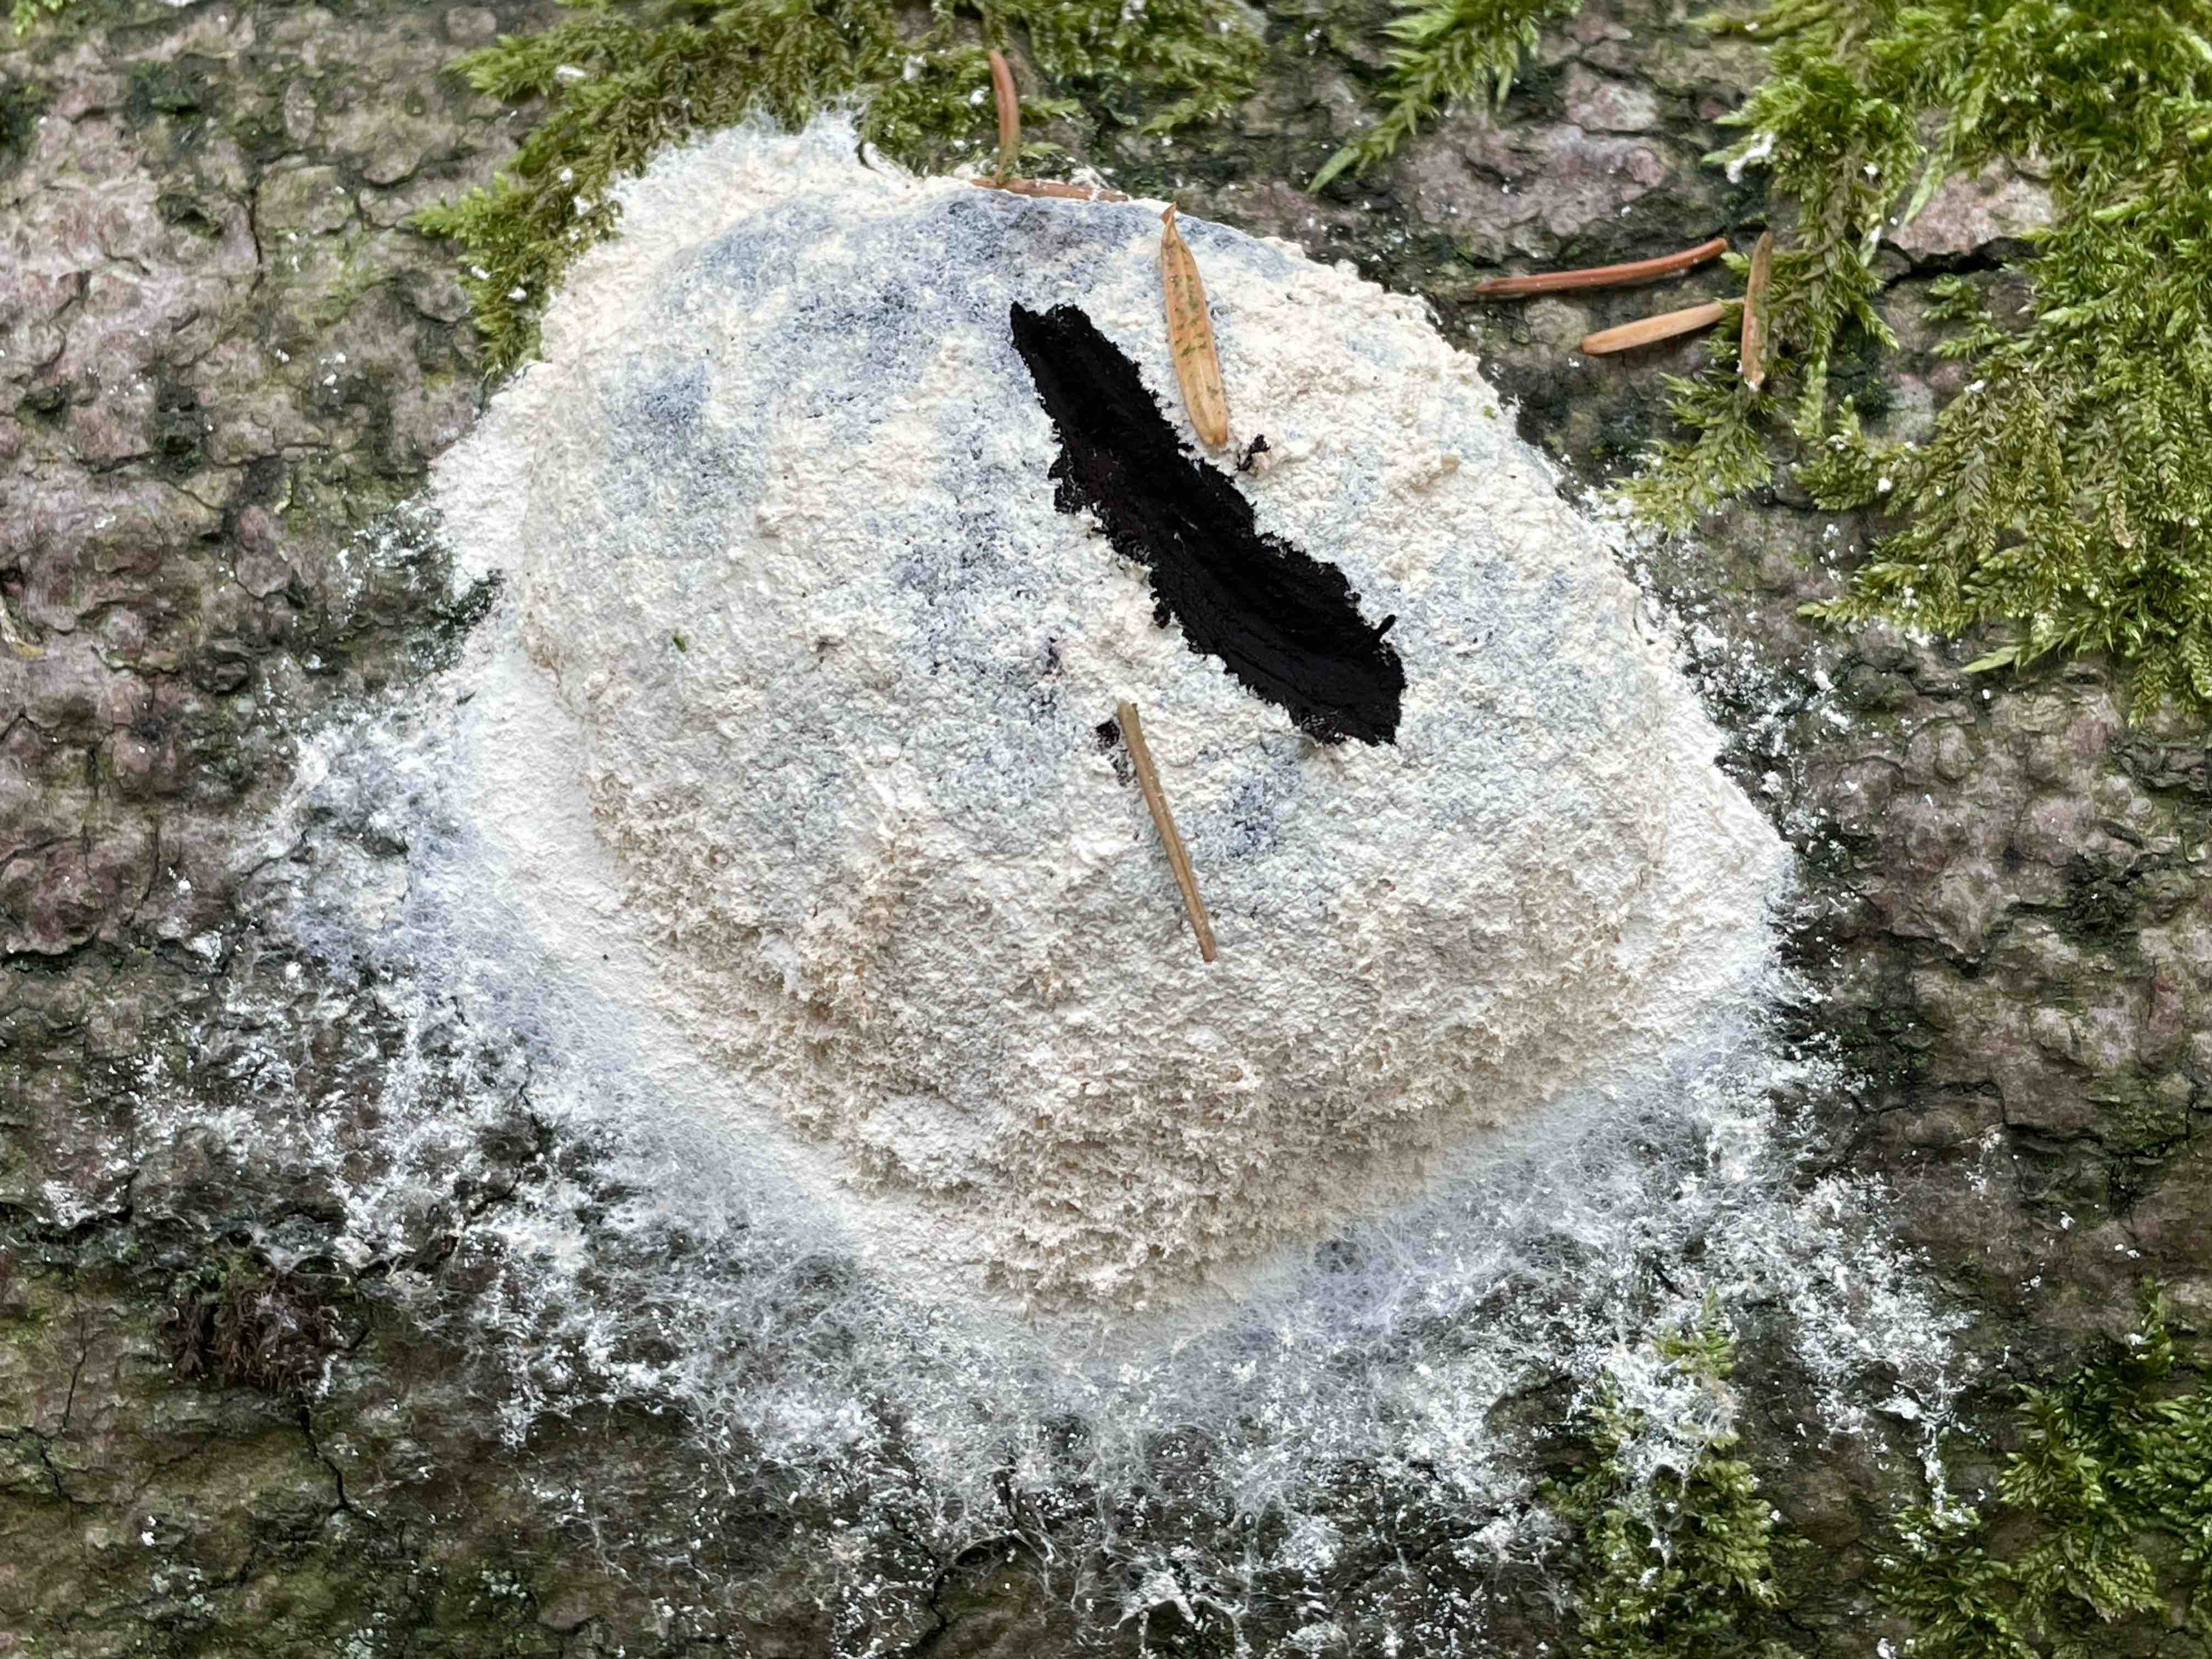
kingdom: Protozoa
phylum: Mycetozoa
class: Myxomycetes
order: Physarales
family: Physaraceae
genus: Fuligo
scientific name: Fuligo
